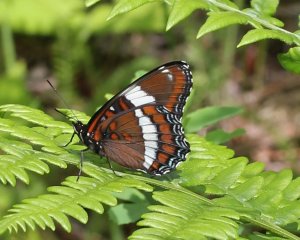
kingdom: Animalia
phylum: Arthropoda
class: Insecta
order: Lepidoptera
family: Nymphalidae
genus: Limenitis
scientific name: Limenitis arthemis
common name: Red-spotted Admiral
